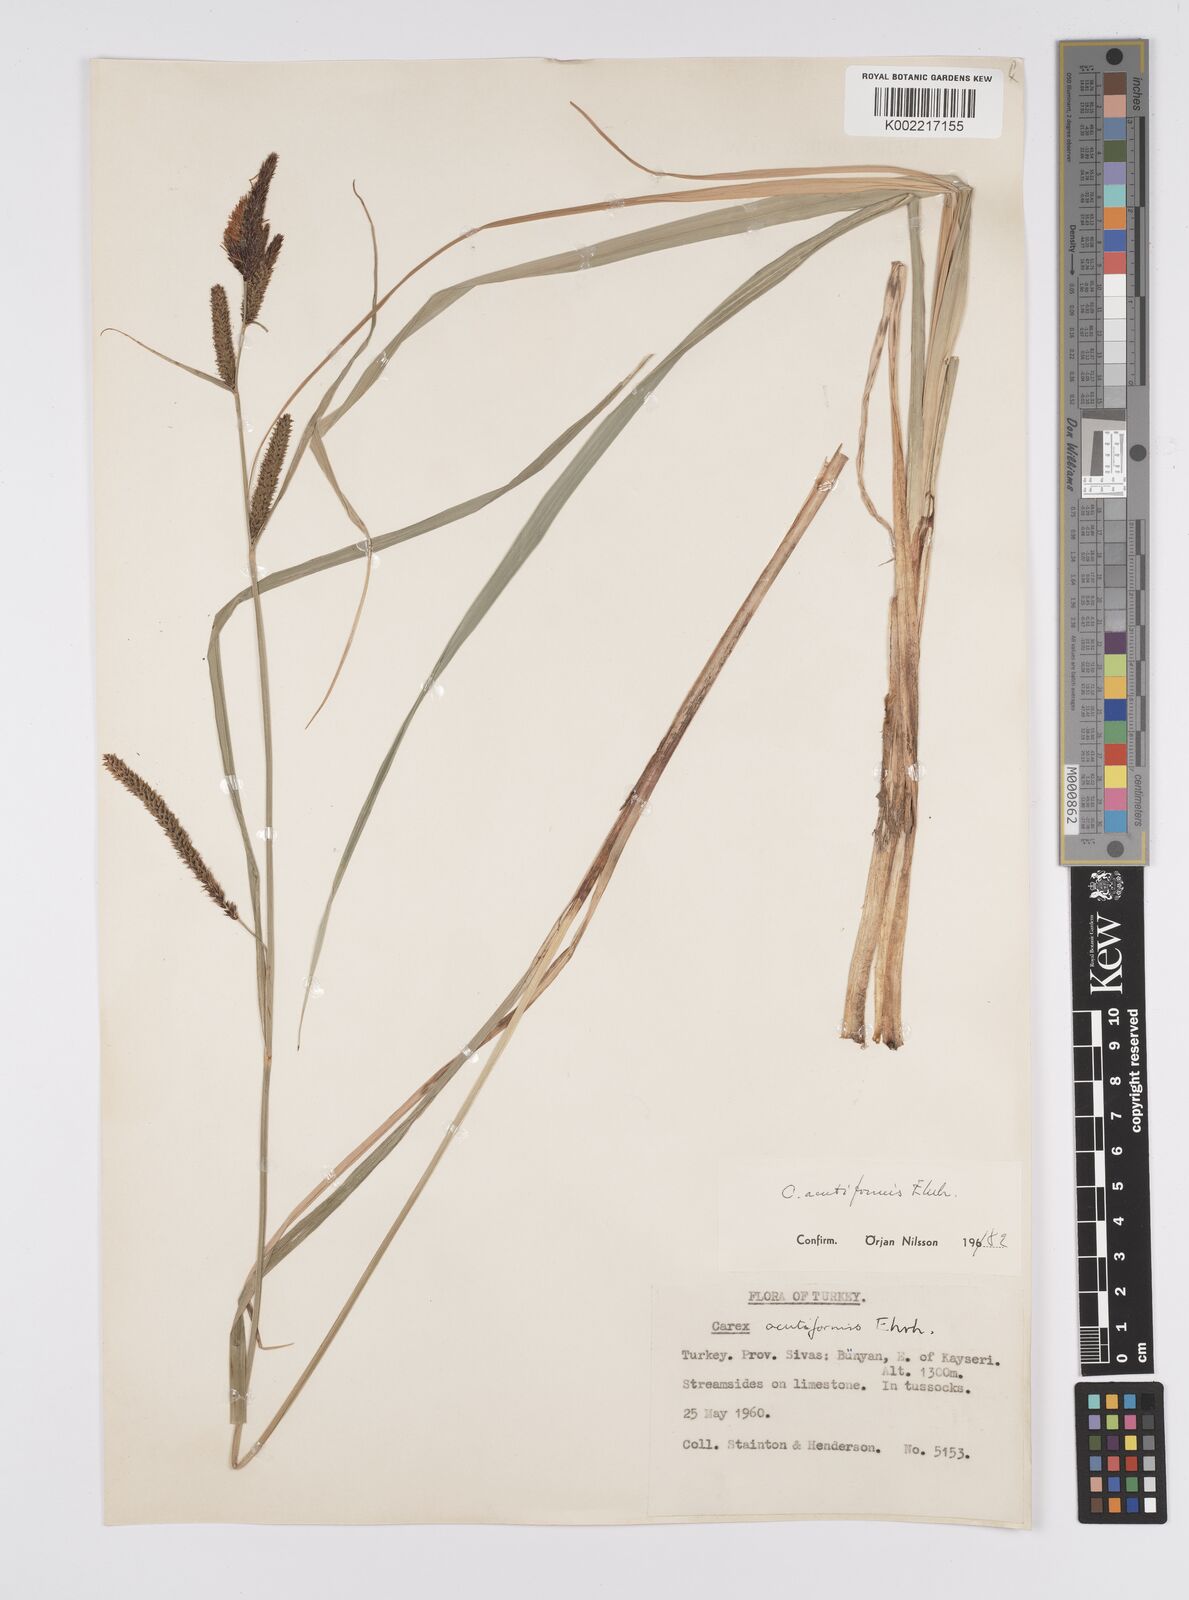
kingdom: Plantae
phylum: Tracheophyta
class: Liliopsida
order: Poales
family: Cyperaceae
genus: Carex
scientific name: Carex acutiformis
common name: Lesser pond-sedge
